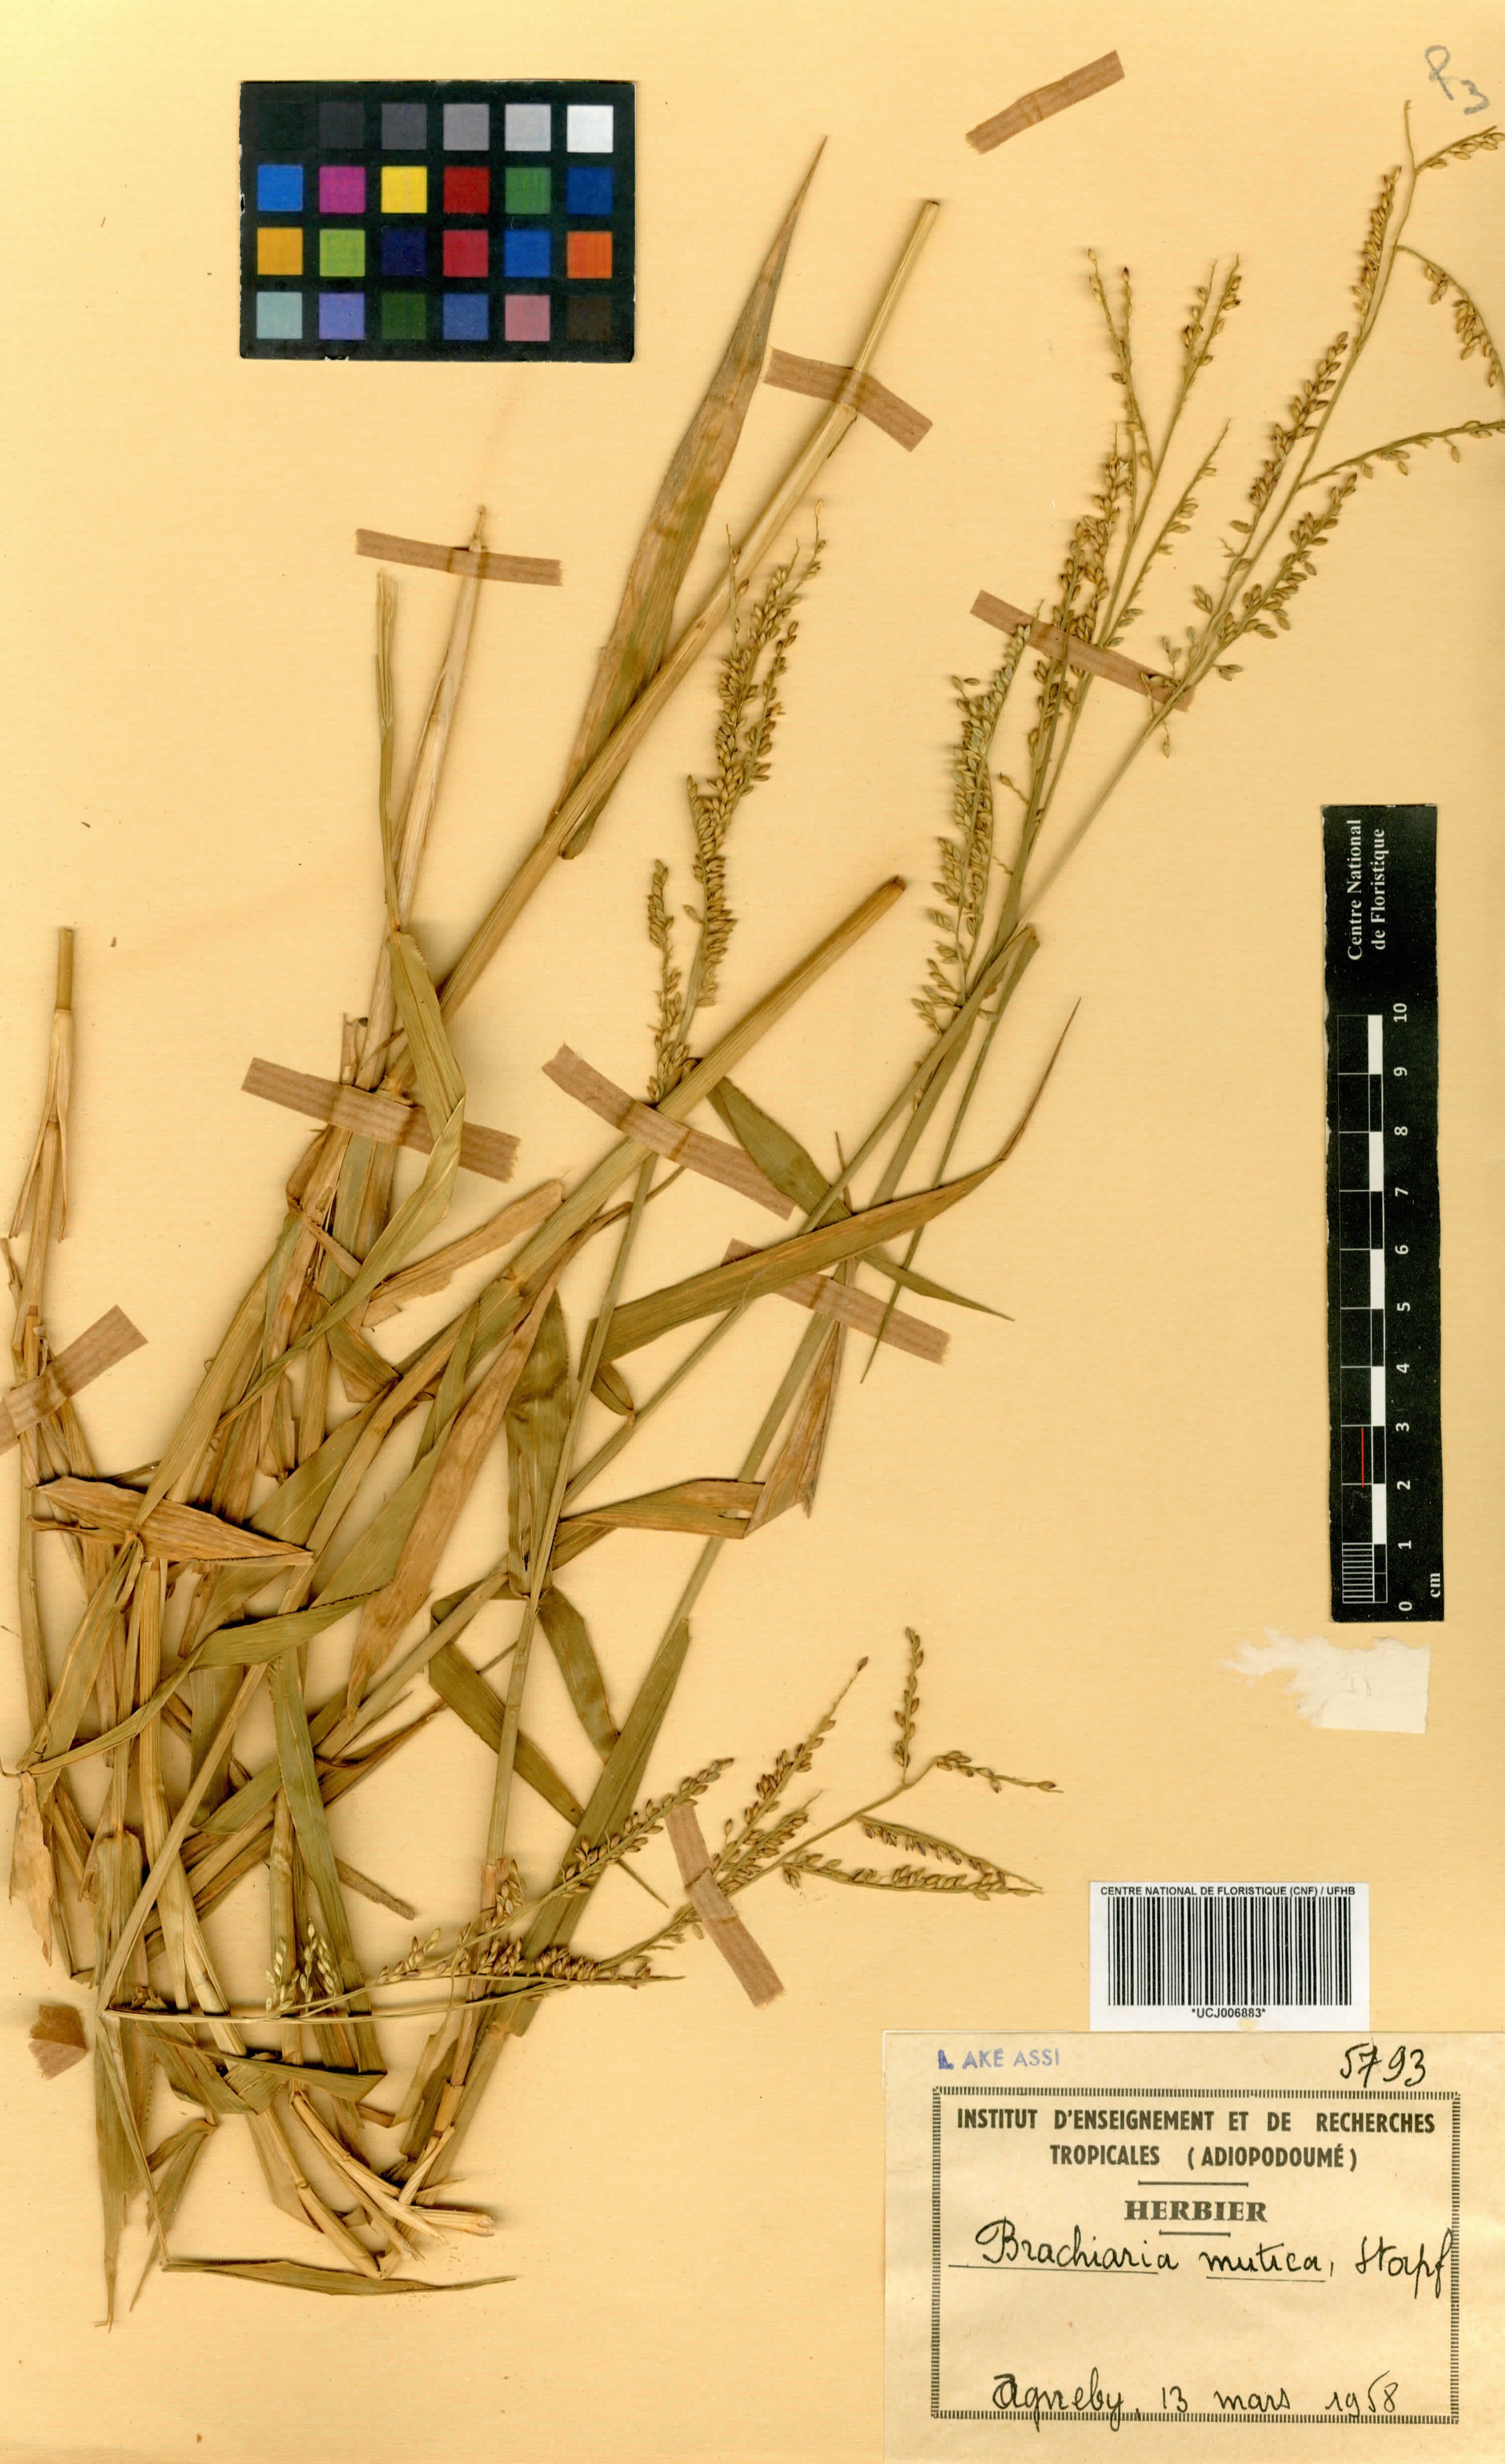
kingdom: Plantae
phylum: Tracheophyta
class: Liliopsida
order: Poales
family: Poaceae
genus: Urochloa
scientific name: Urochloa mutica
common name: Para grass
